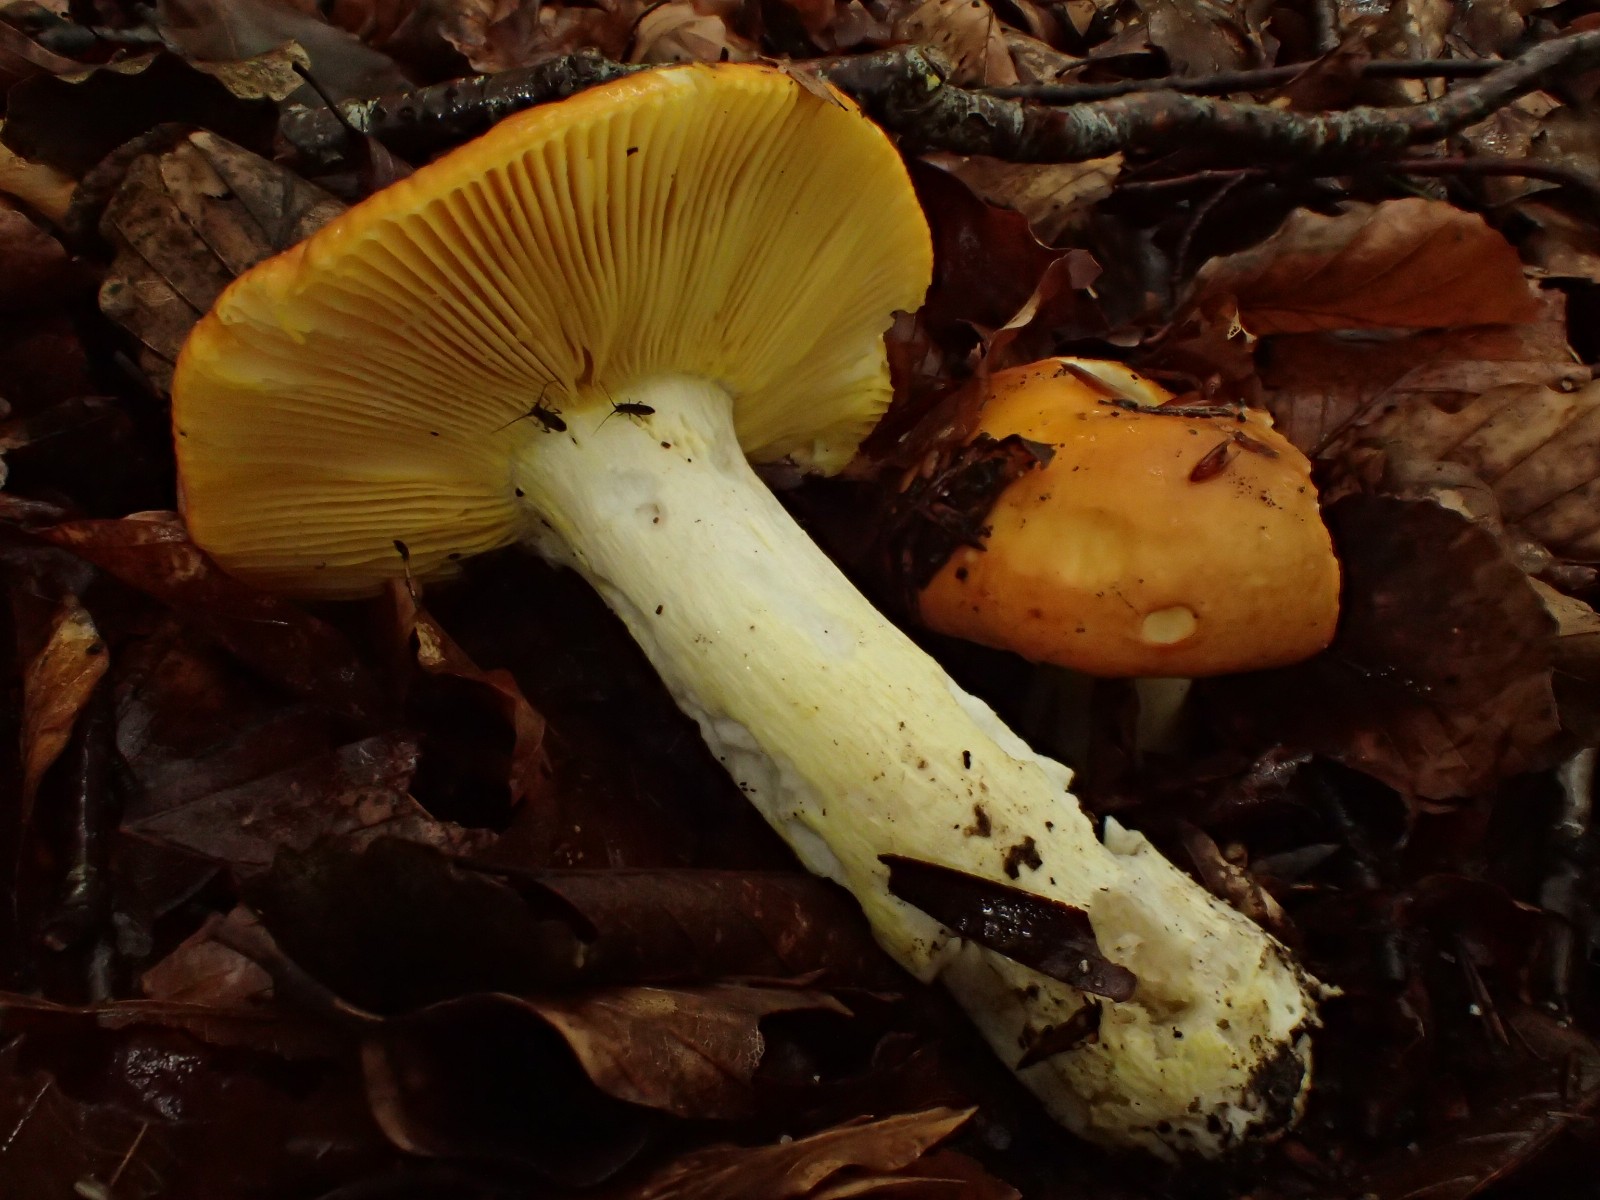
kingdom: Fungi
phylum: Basidiomycota
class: Agaricomycetes
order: Russulales
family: Russulaceae
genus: Russula
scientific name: Russula aurea
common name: gylden skørhat
